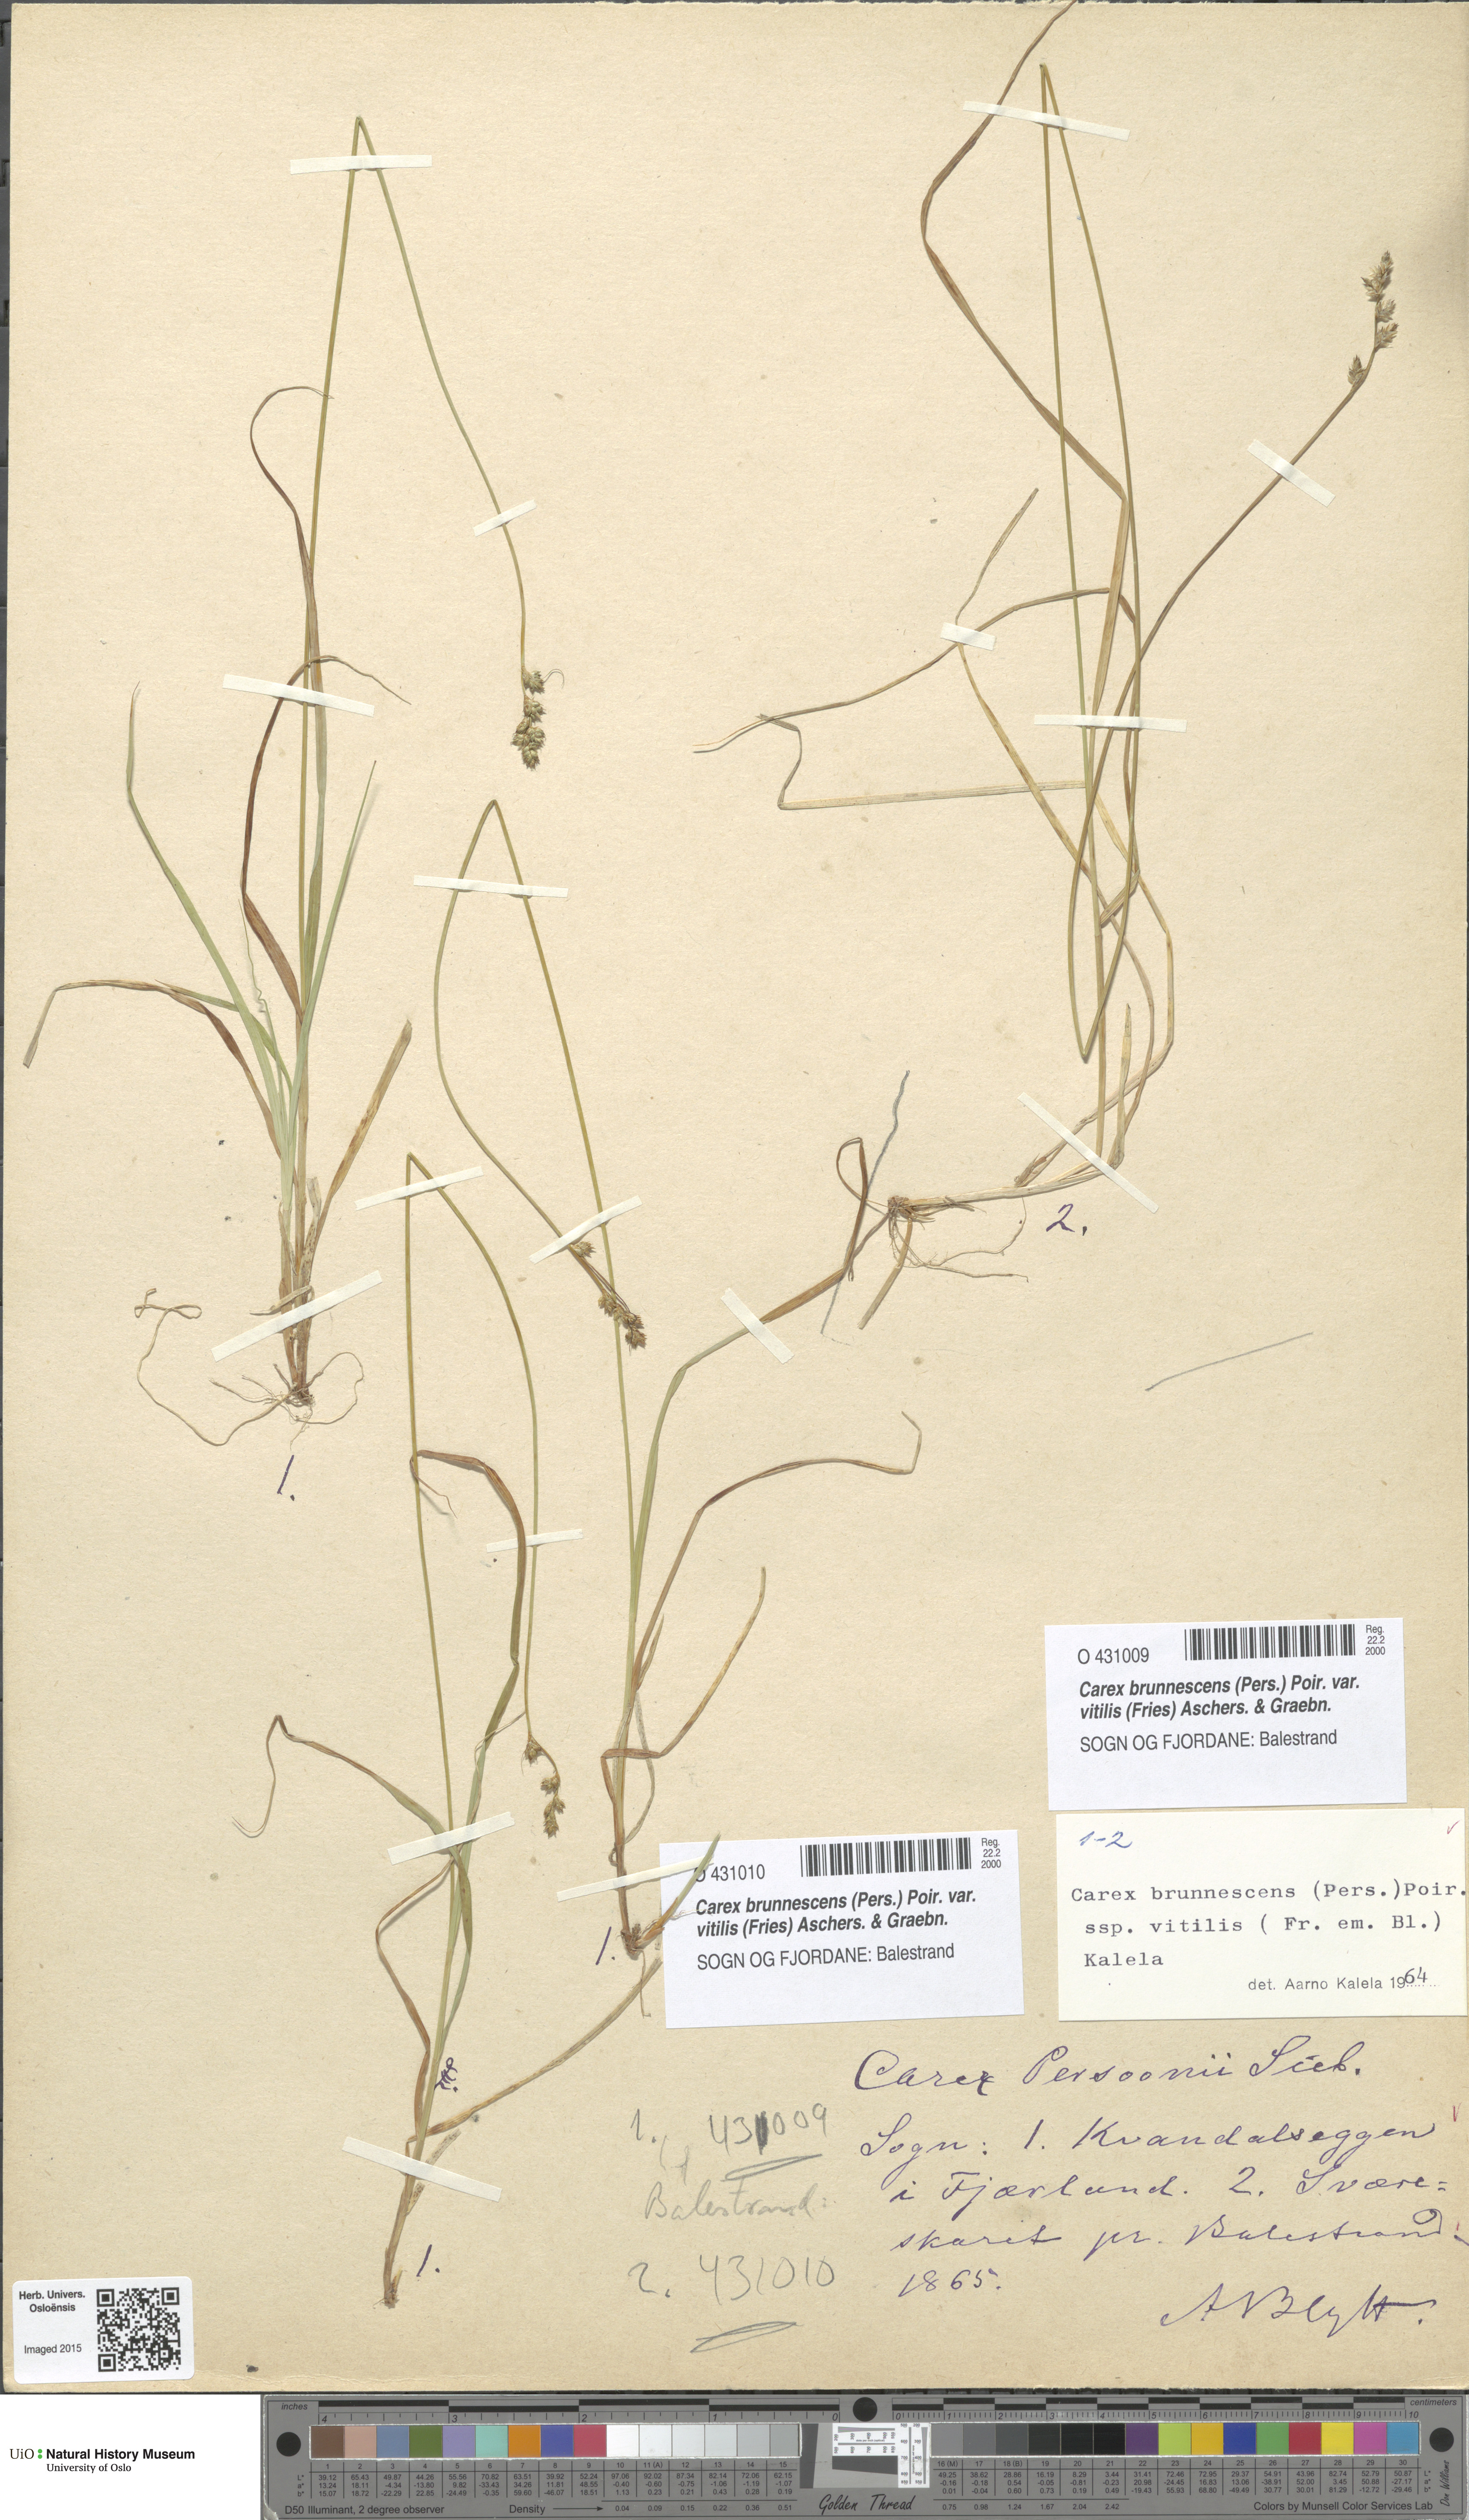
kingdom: Plantae
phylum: Tracheophyta
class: Liliopsida
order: Poales
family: Cyperaceae
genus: Carex
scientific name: Carex brunnescens
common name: Brown sedge
